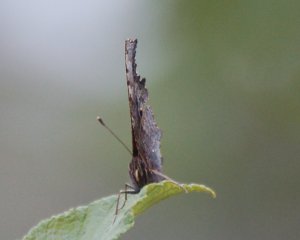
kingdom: Animalia
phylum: Arthropoda
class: Insecta
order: Lepidoptera
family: Nymphalidae
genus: Polygonia
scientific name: Polygonia progne
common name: Gray Comma
